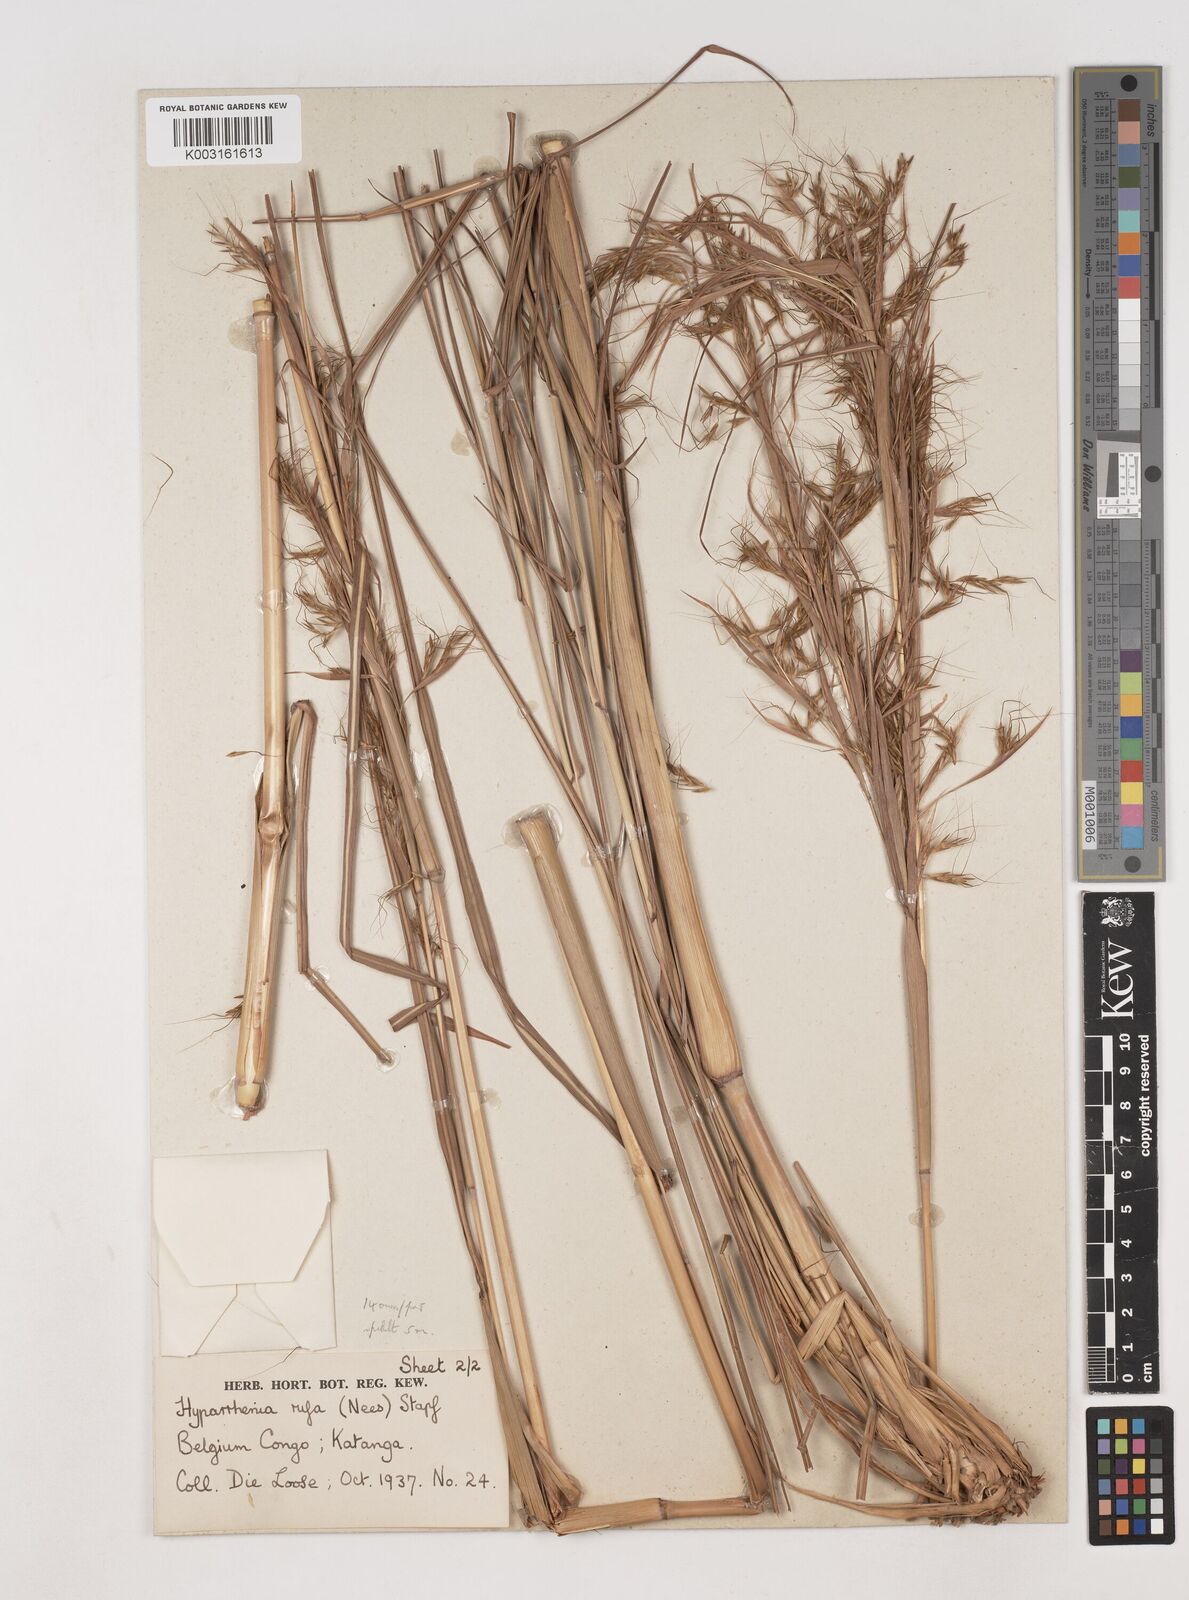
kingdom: Plantae
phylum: Tracheophyta
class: Liliopsida
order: Poales
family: Poaceae
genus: Hyparrhenia
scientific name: Hyparrhenia rufa
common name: Jaraguagrass
